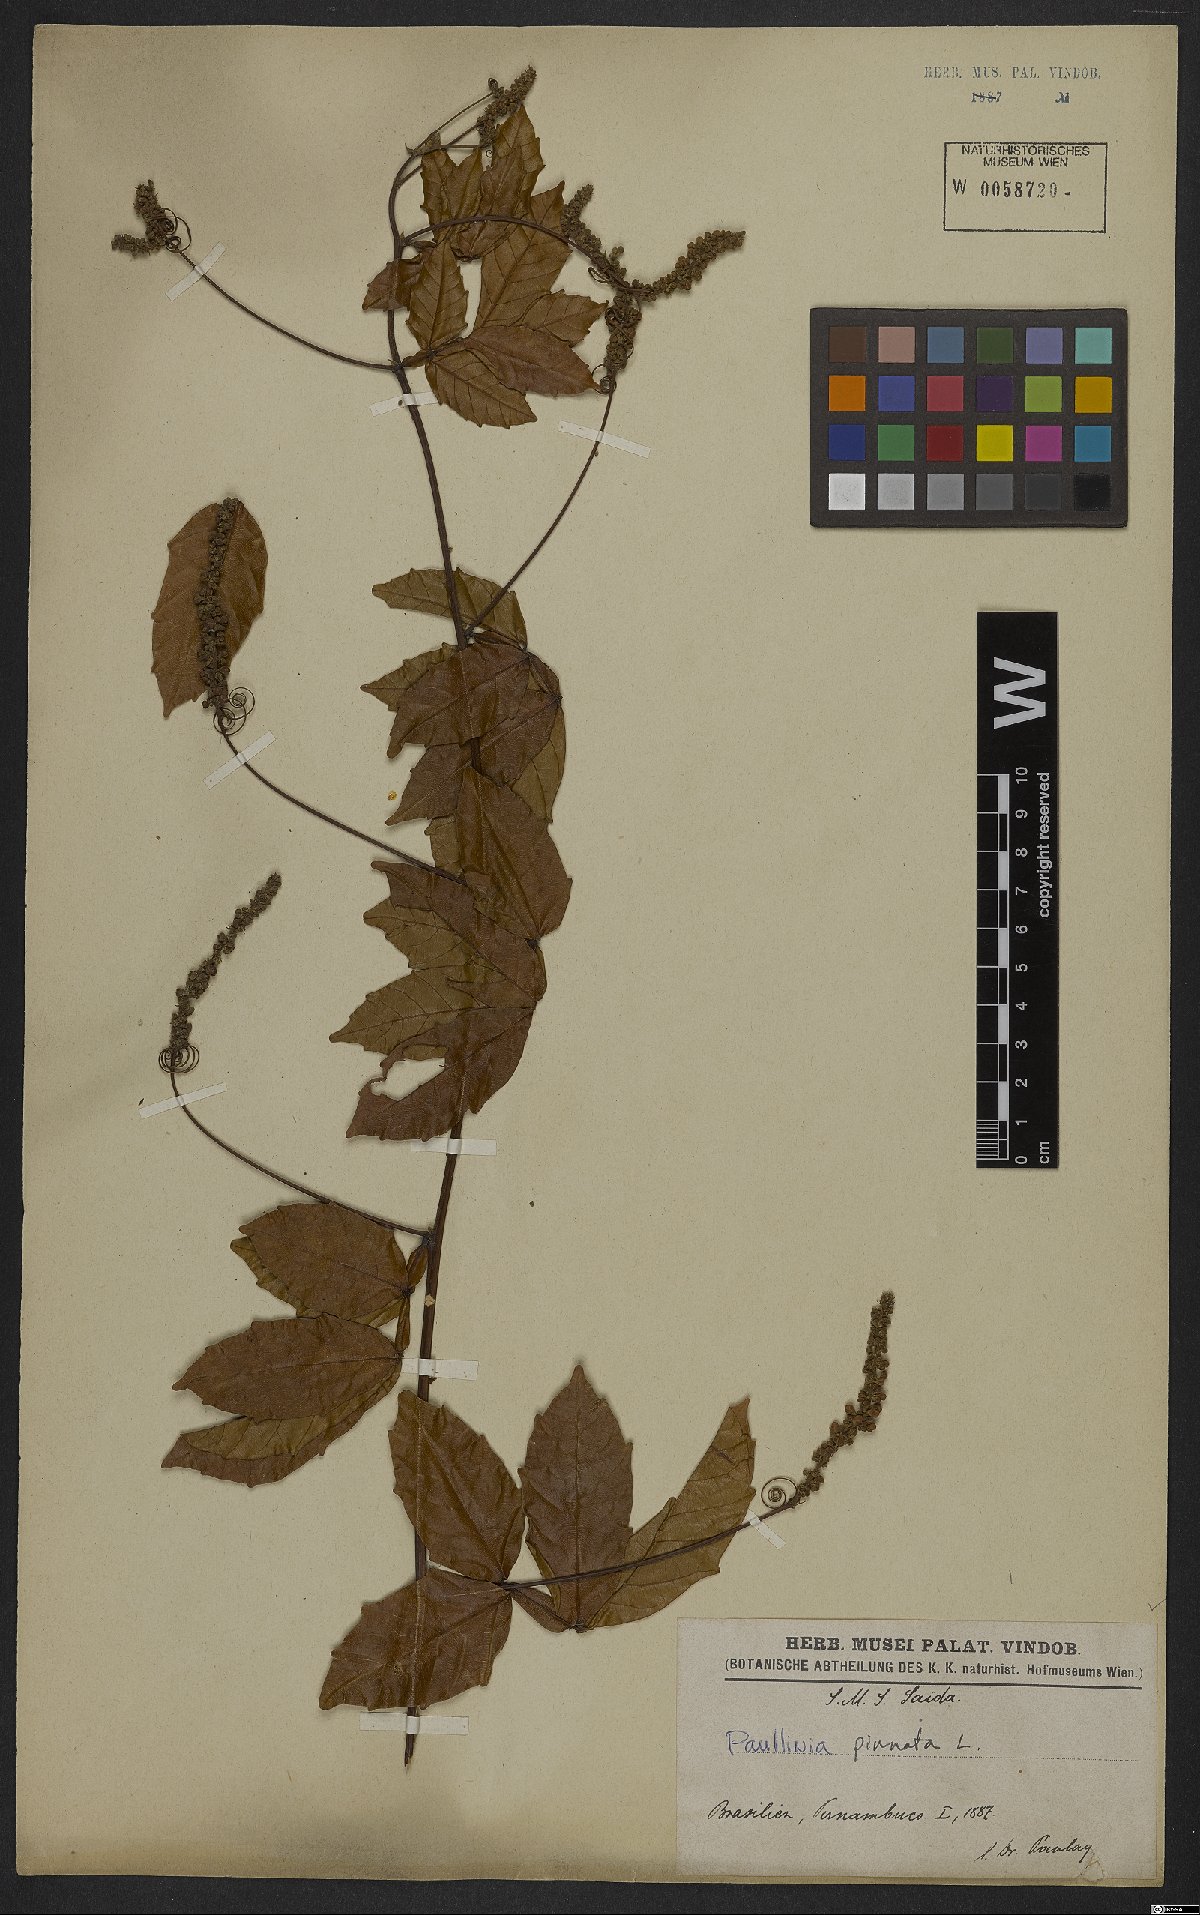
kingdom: Plantae
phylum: Tracheophyta
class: Magnoliopsida
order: Sapindales
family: Sapindaceae
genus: Paullinia
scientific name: Paullinia pinnata
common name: Barbasco
